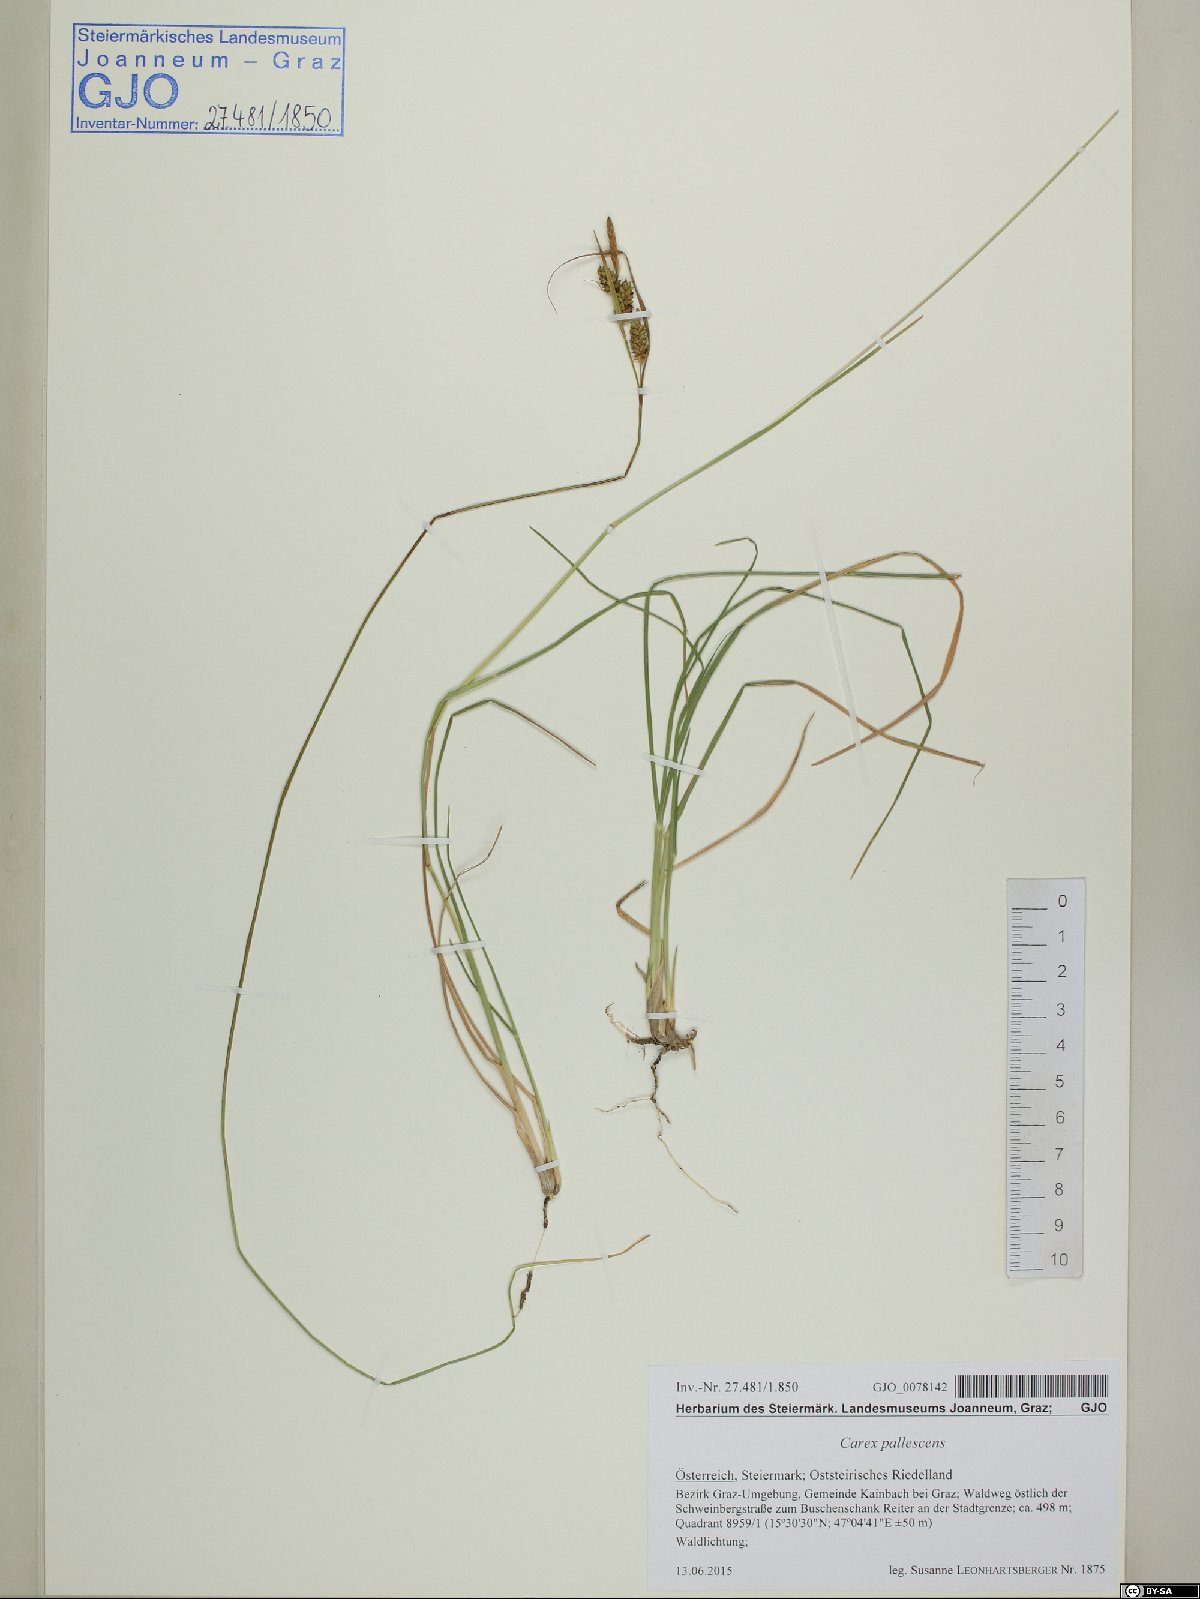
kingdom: Plantae
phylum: Tracheophyta
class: Liliopsida
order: Poales
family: Cyperaceae
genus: Carex
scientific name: Carex pallescens
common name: Pale sedge
